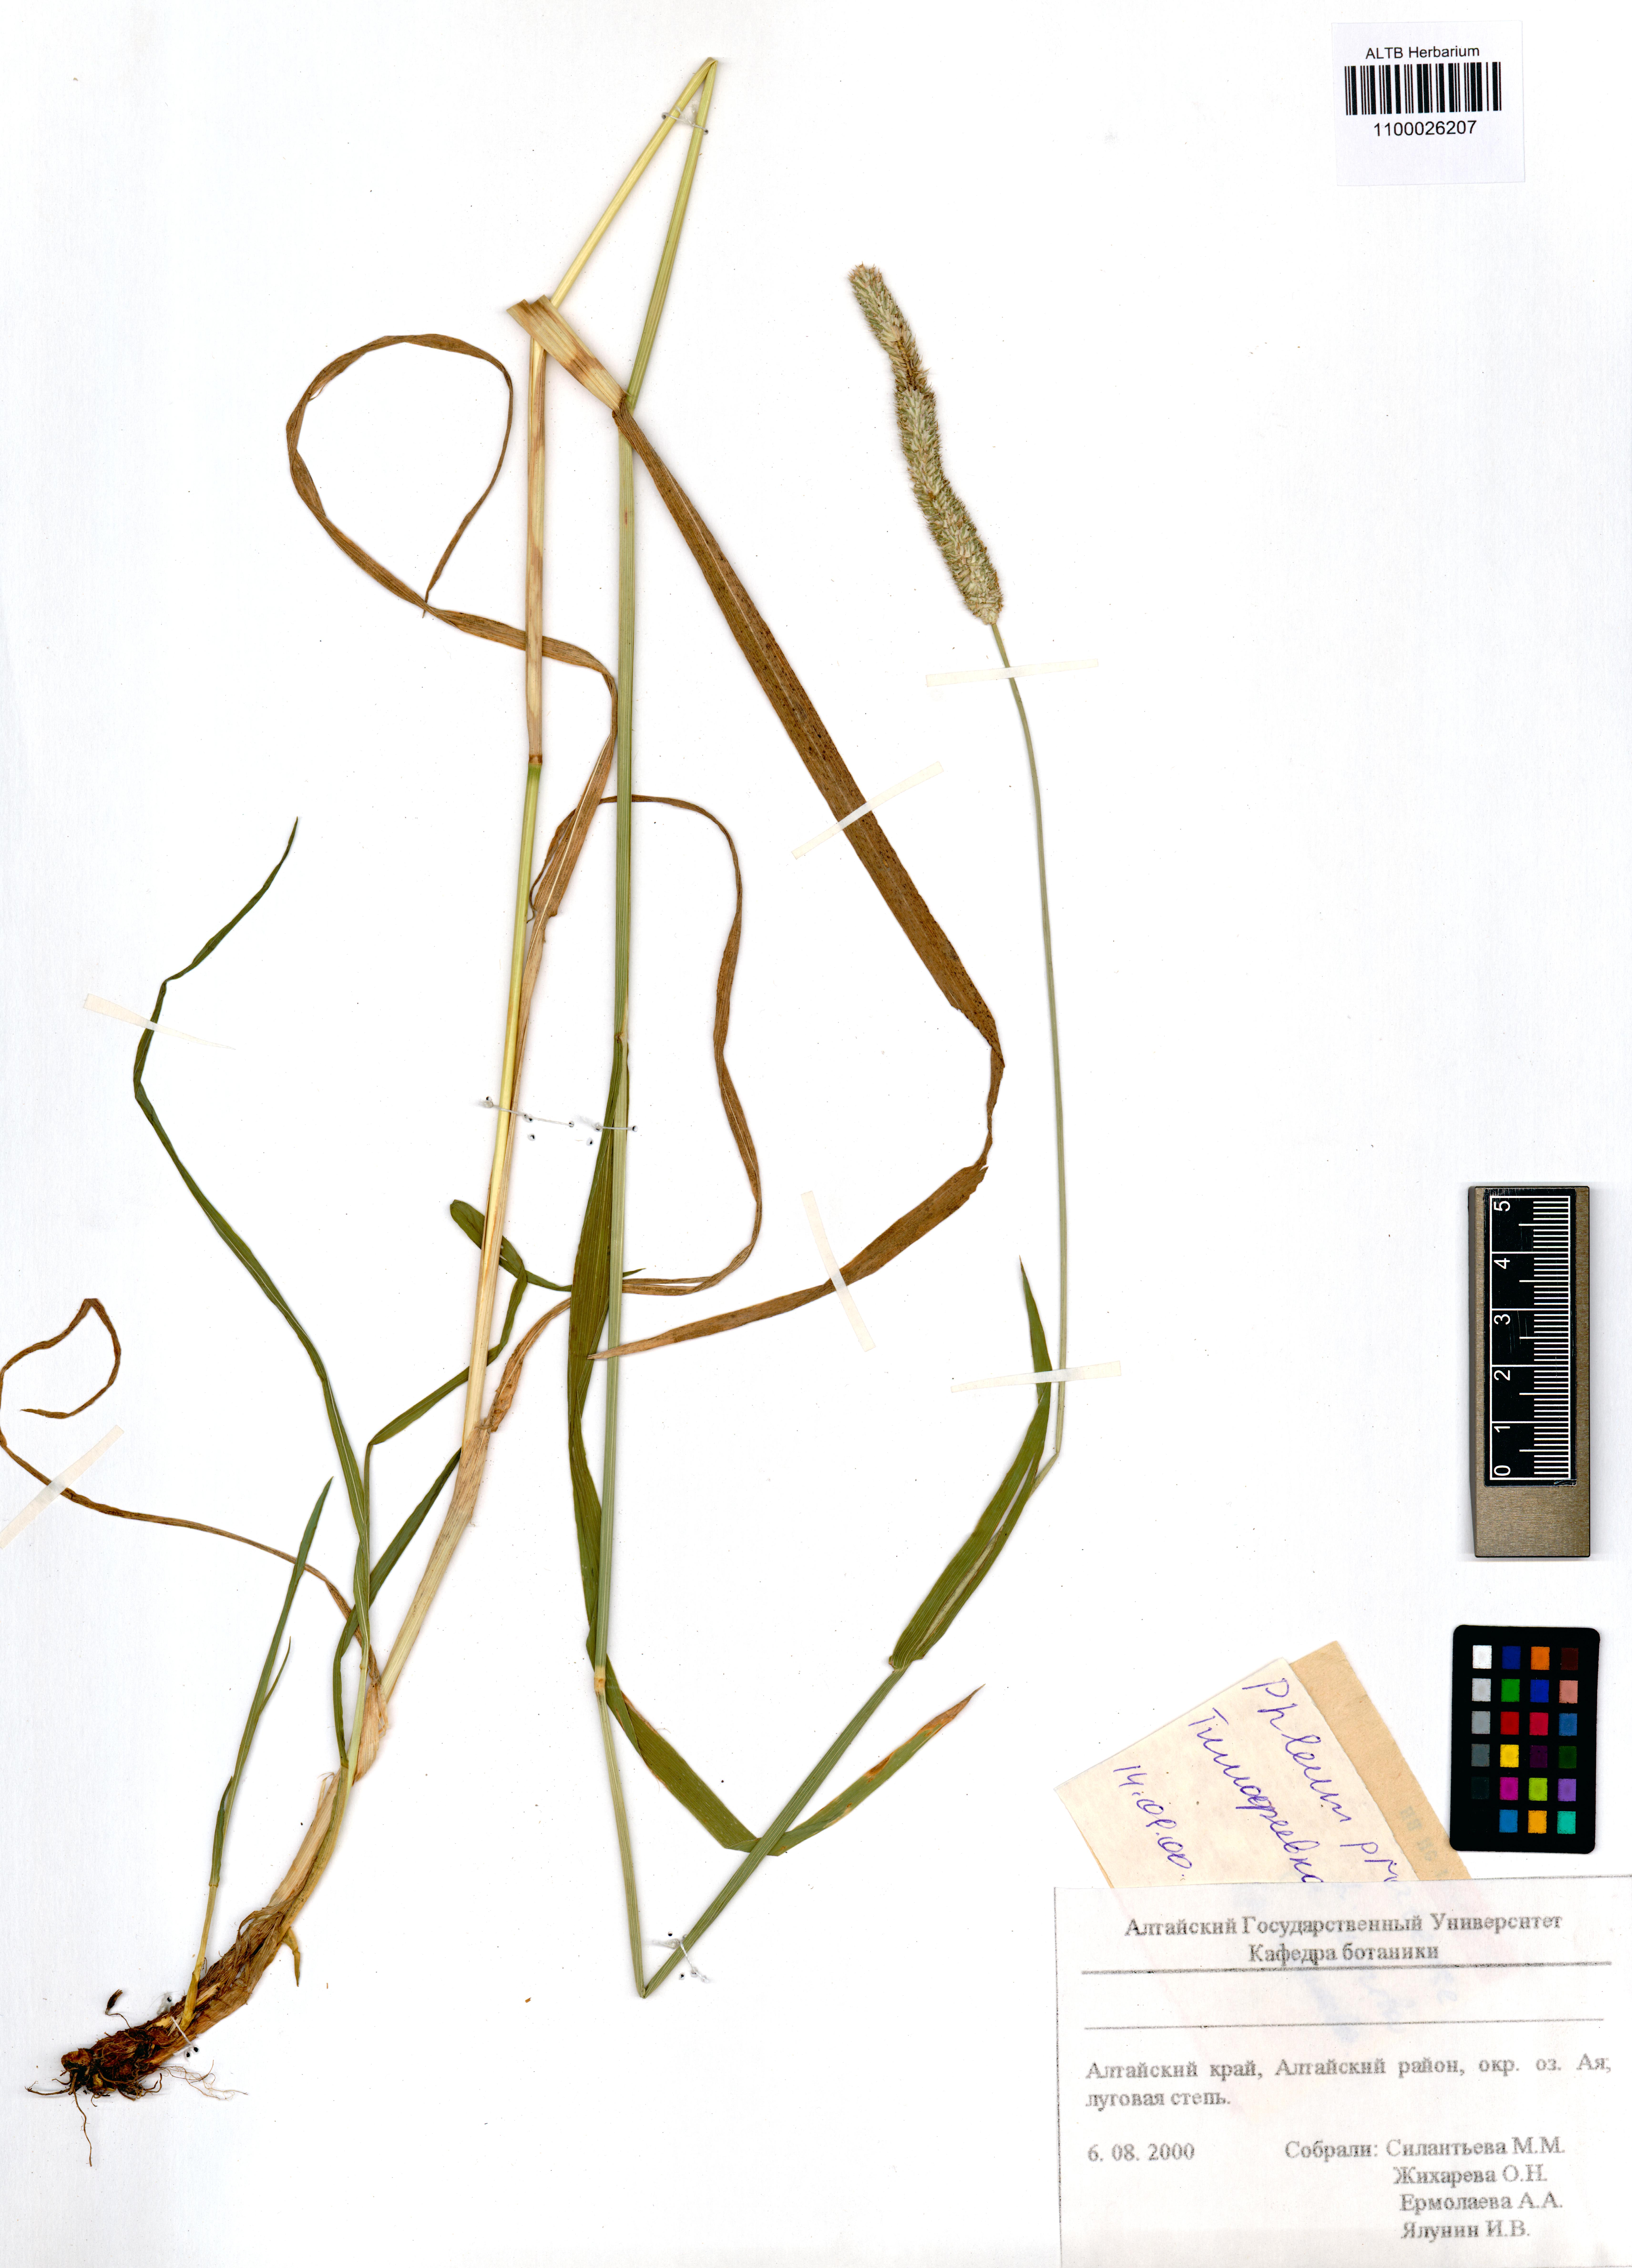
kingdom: Plantae
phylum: Tracheophyta
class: Liliopsida
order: Poales
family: Poaceae
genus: Phleum
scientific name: Phleum pratense
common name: Timothy grass
